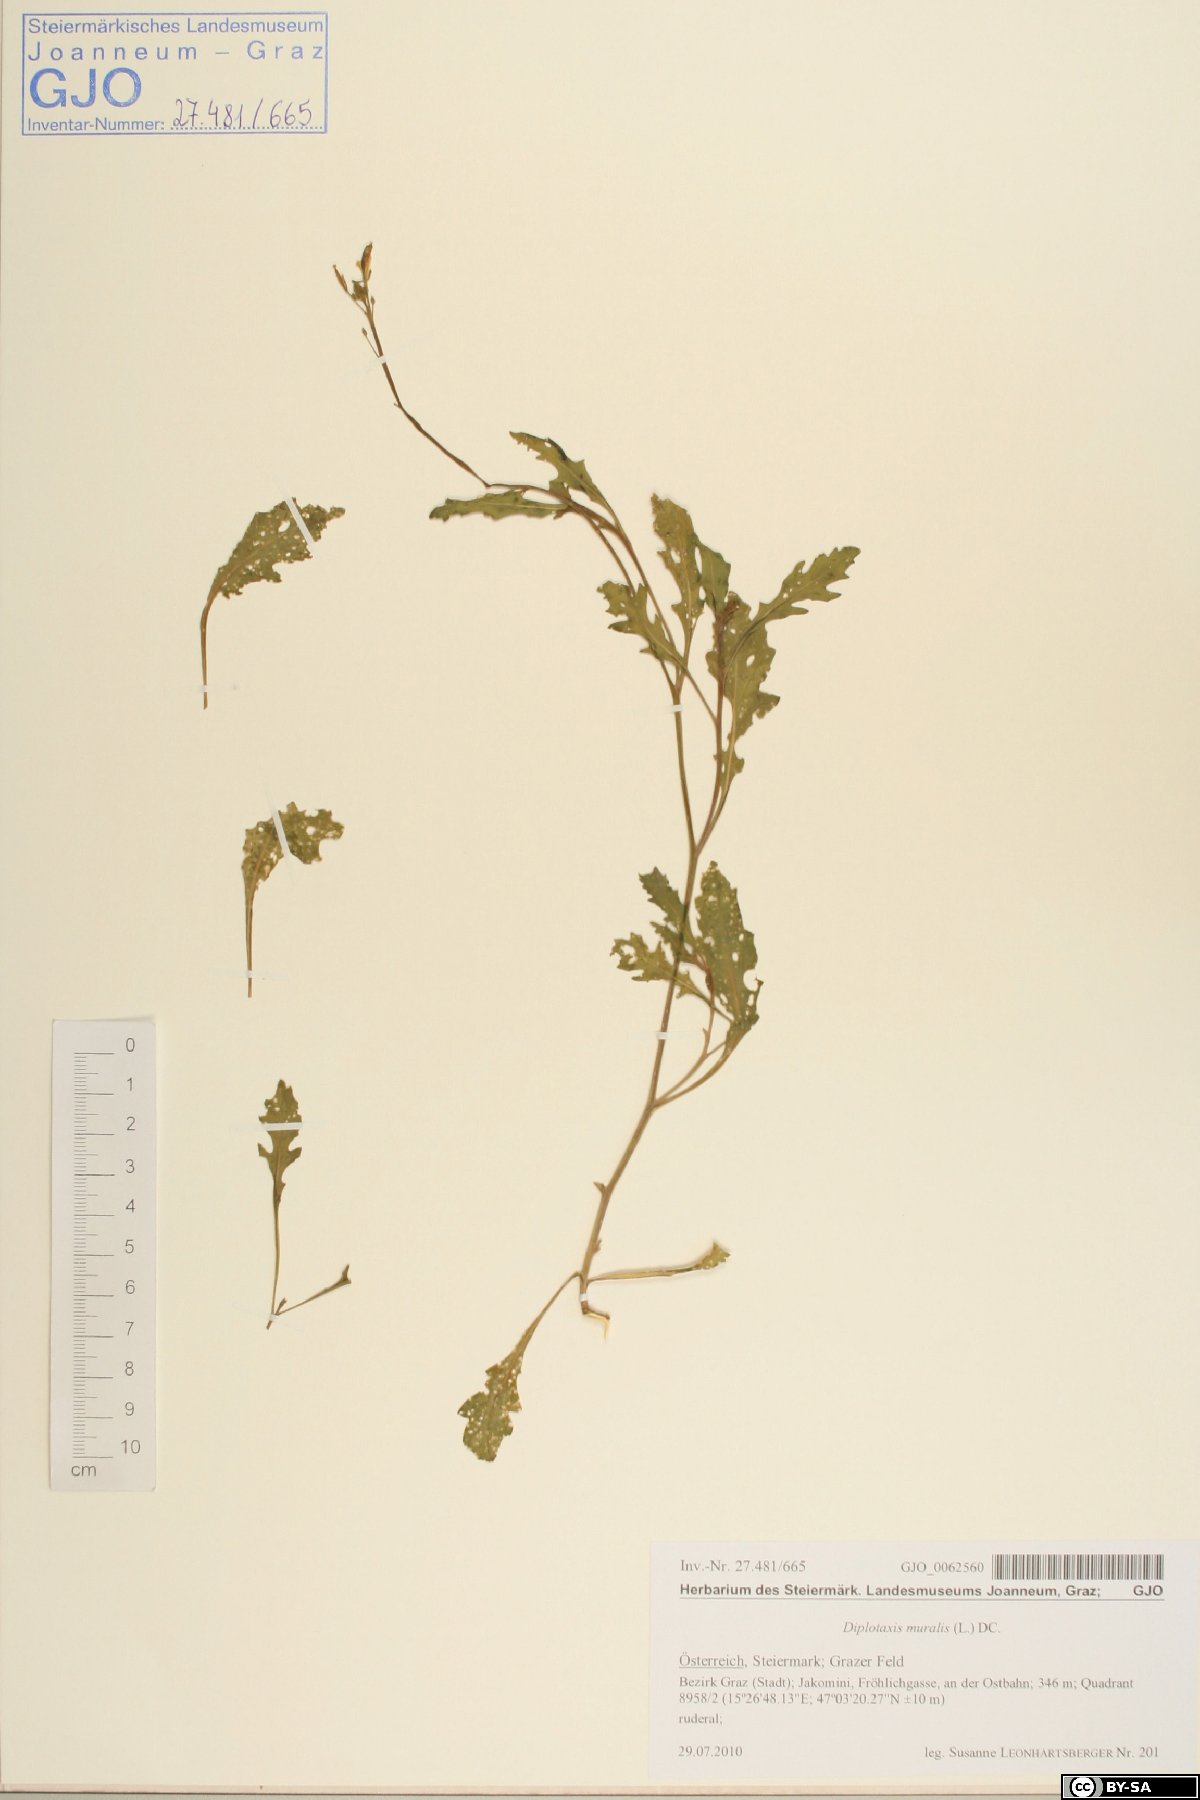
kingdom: Plantae
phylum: Tracheophyta
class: Magnoliopsida
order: Brassicales
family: Brassicaceae
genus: Diplotaxis
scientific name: Diplotaxis tenuifolia
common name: Perennial wall-rocket
